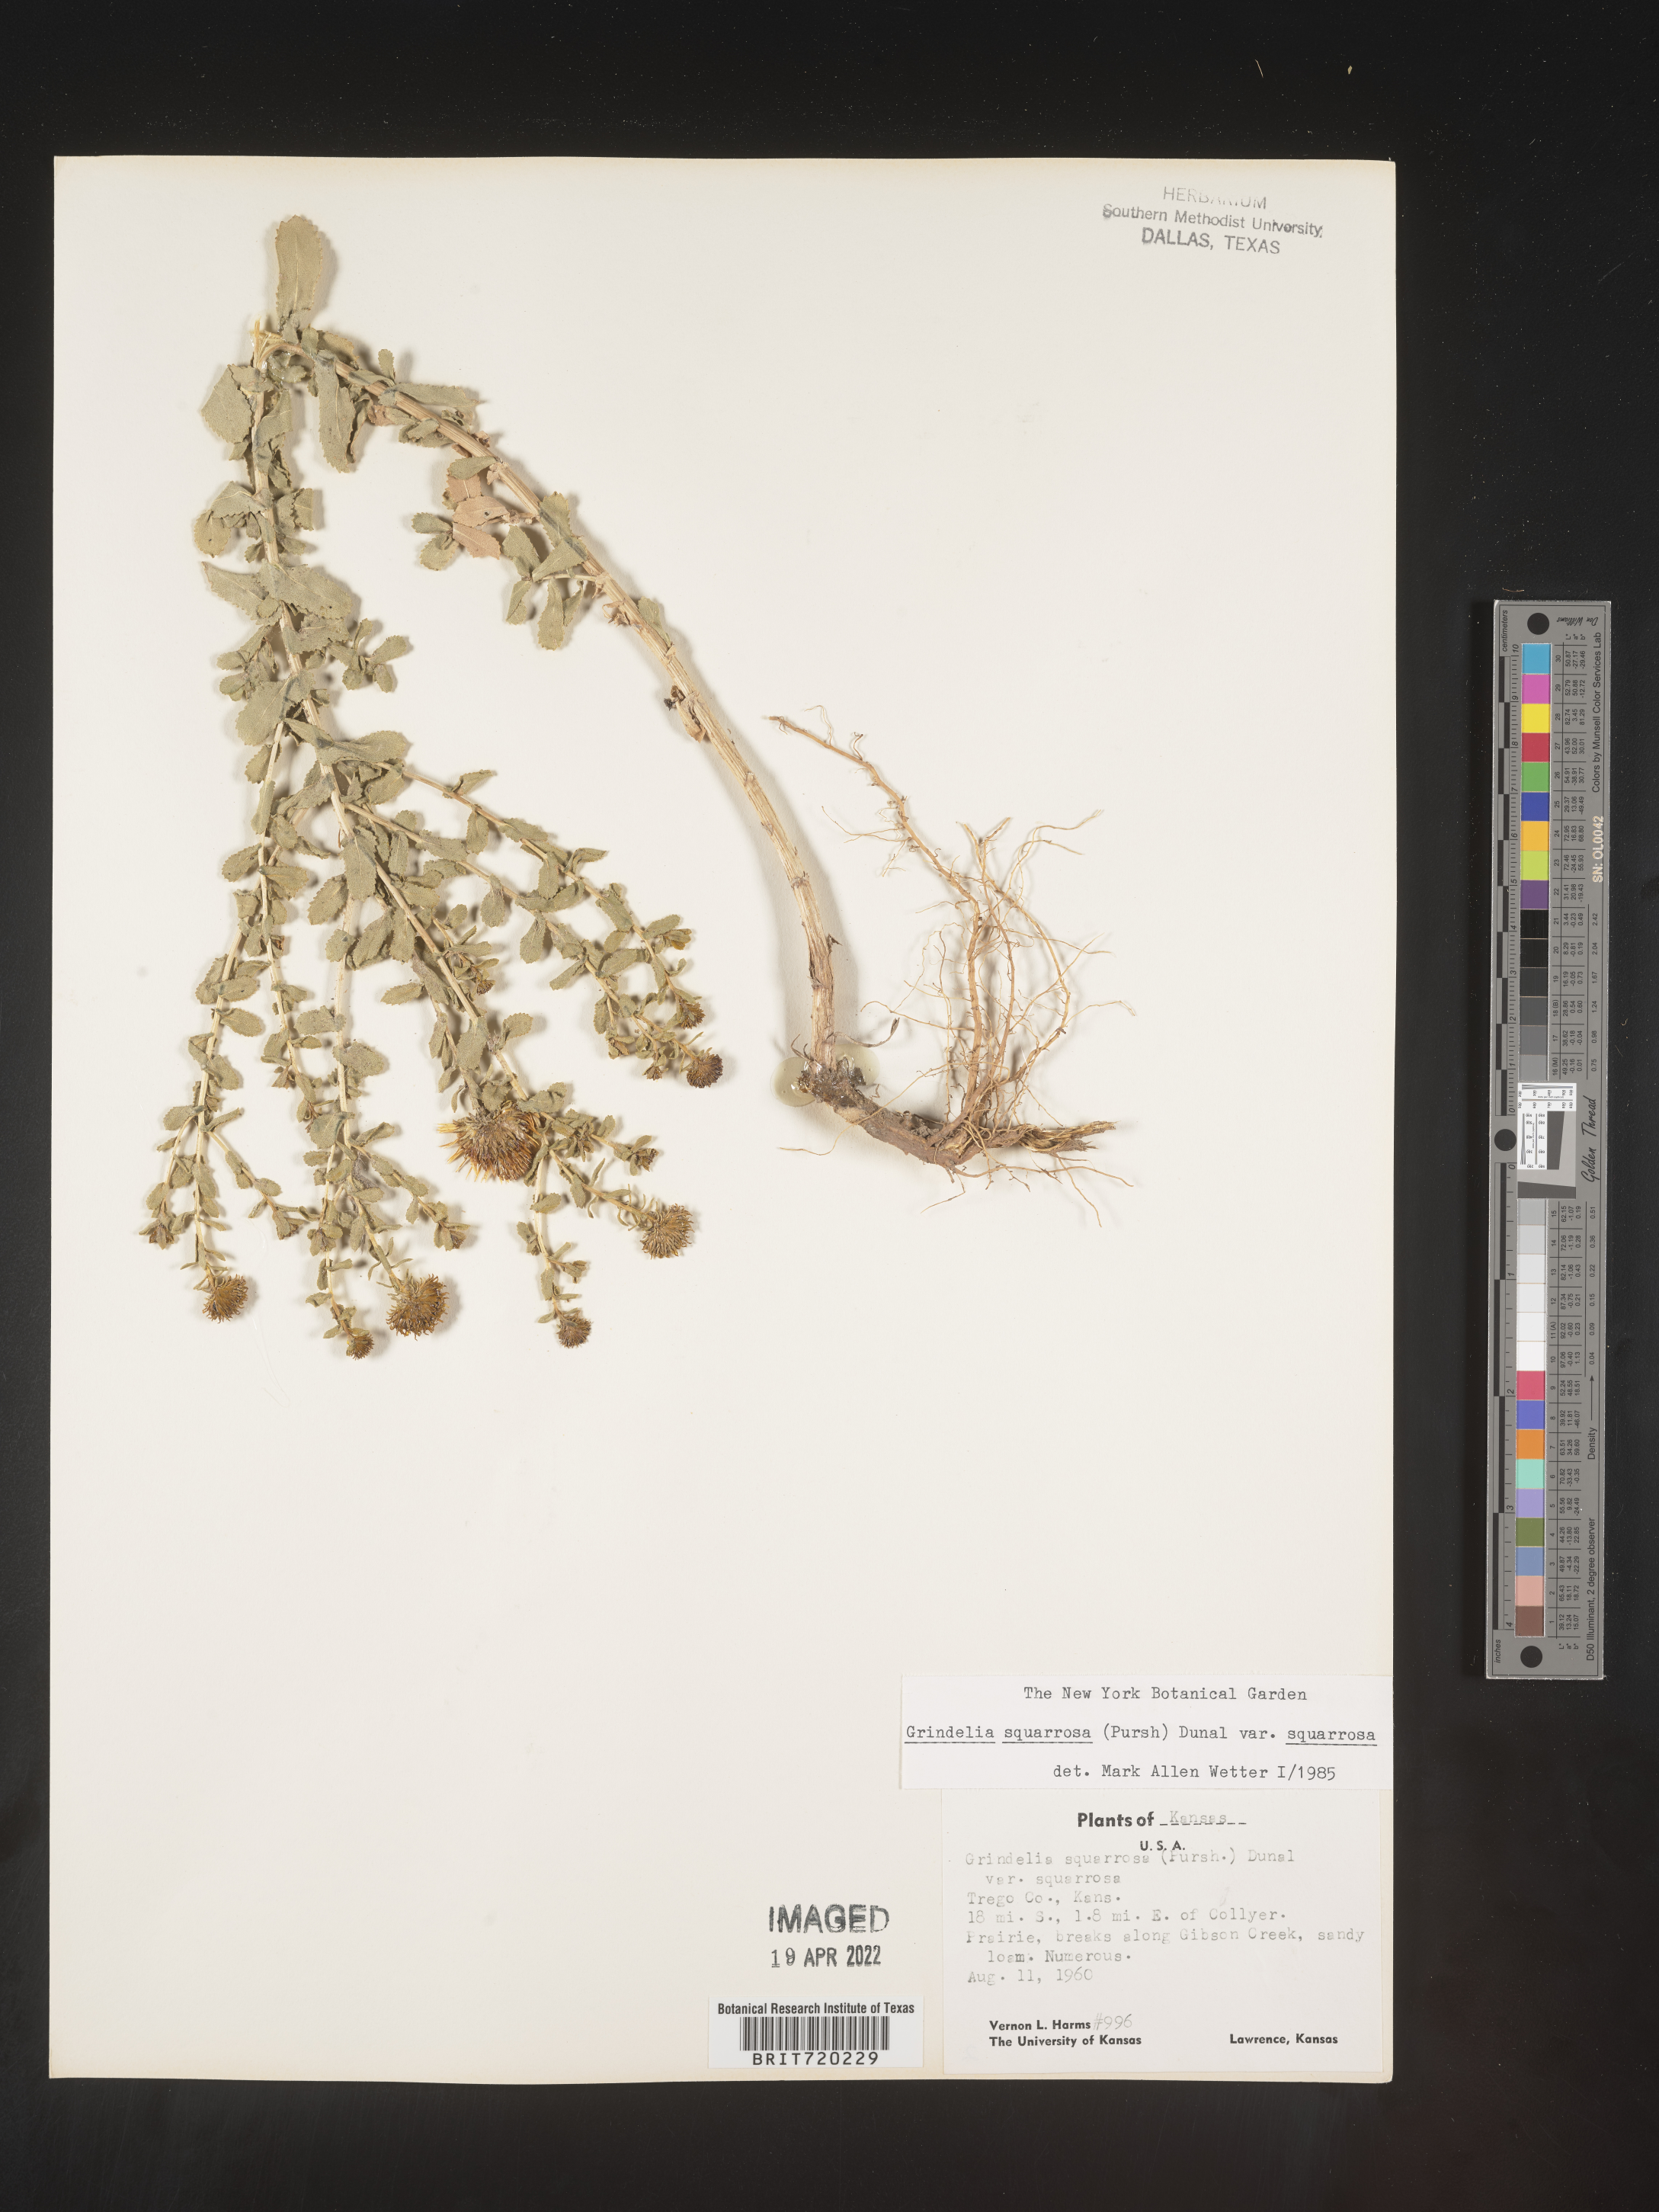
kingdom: Plantae
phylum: Tracheophyta
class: Magnoliopsida
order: Asterales
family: Asteraceae
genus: Grindelia
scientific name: Grindelia squarrosa
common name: Curly-cup gumweed
